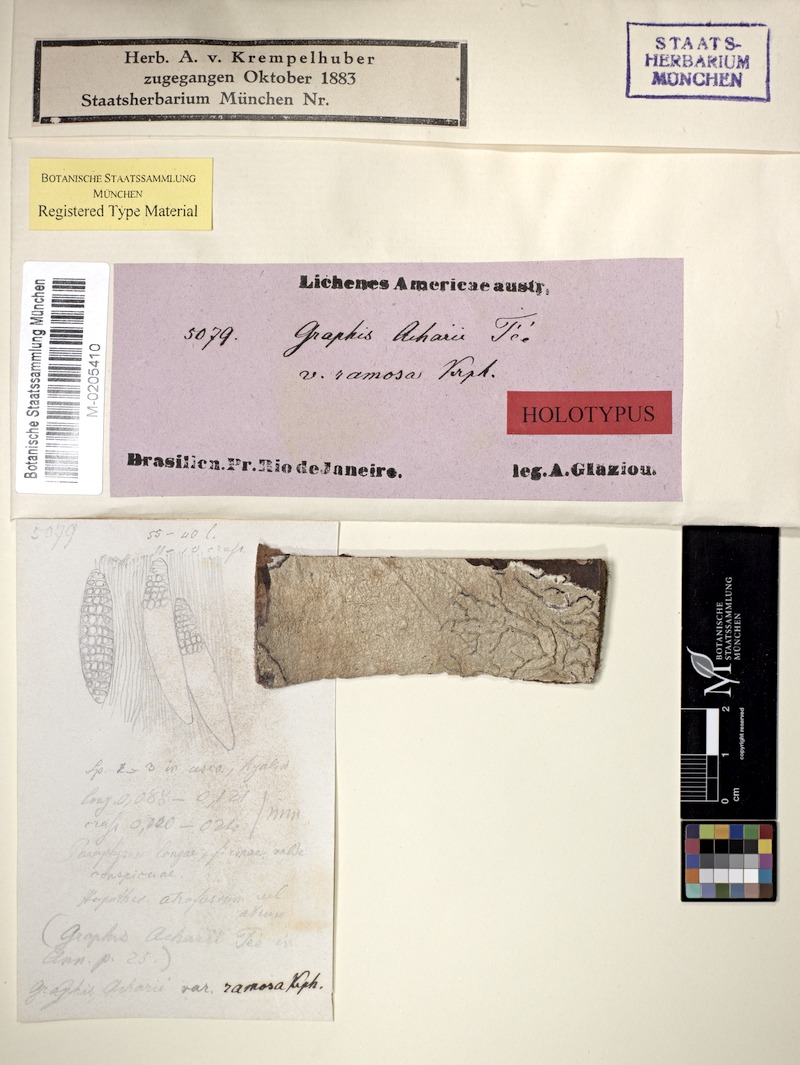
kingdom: Fungi
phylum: Ascomycota
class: Lecanoromycetes
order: Ostropales
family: Graphidaceae
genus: Allographa
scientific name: Allographa acharii
